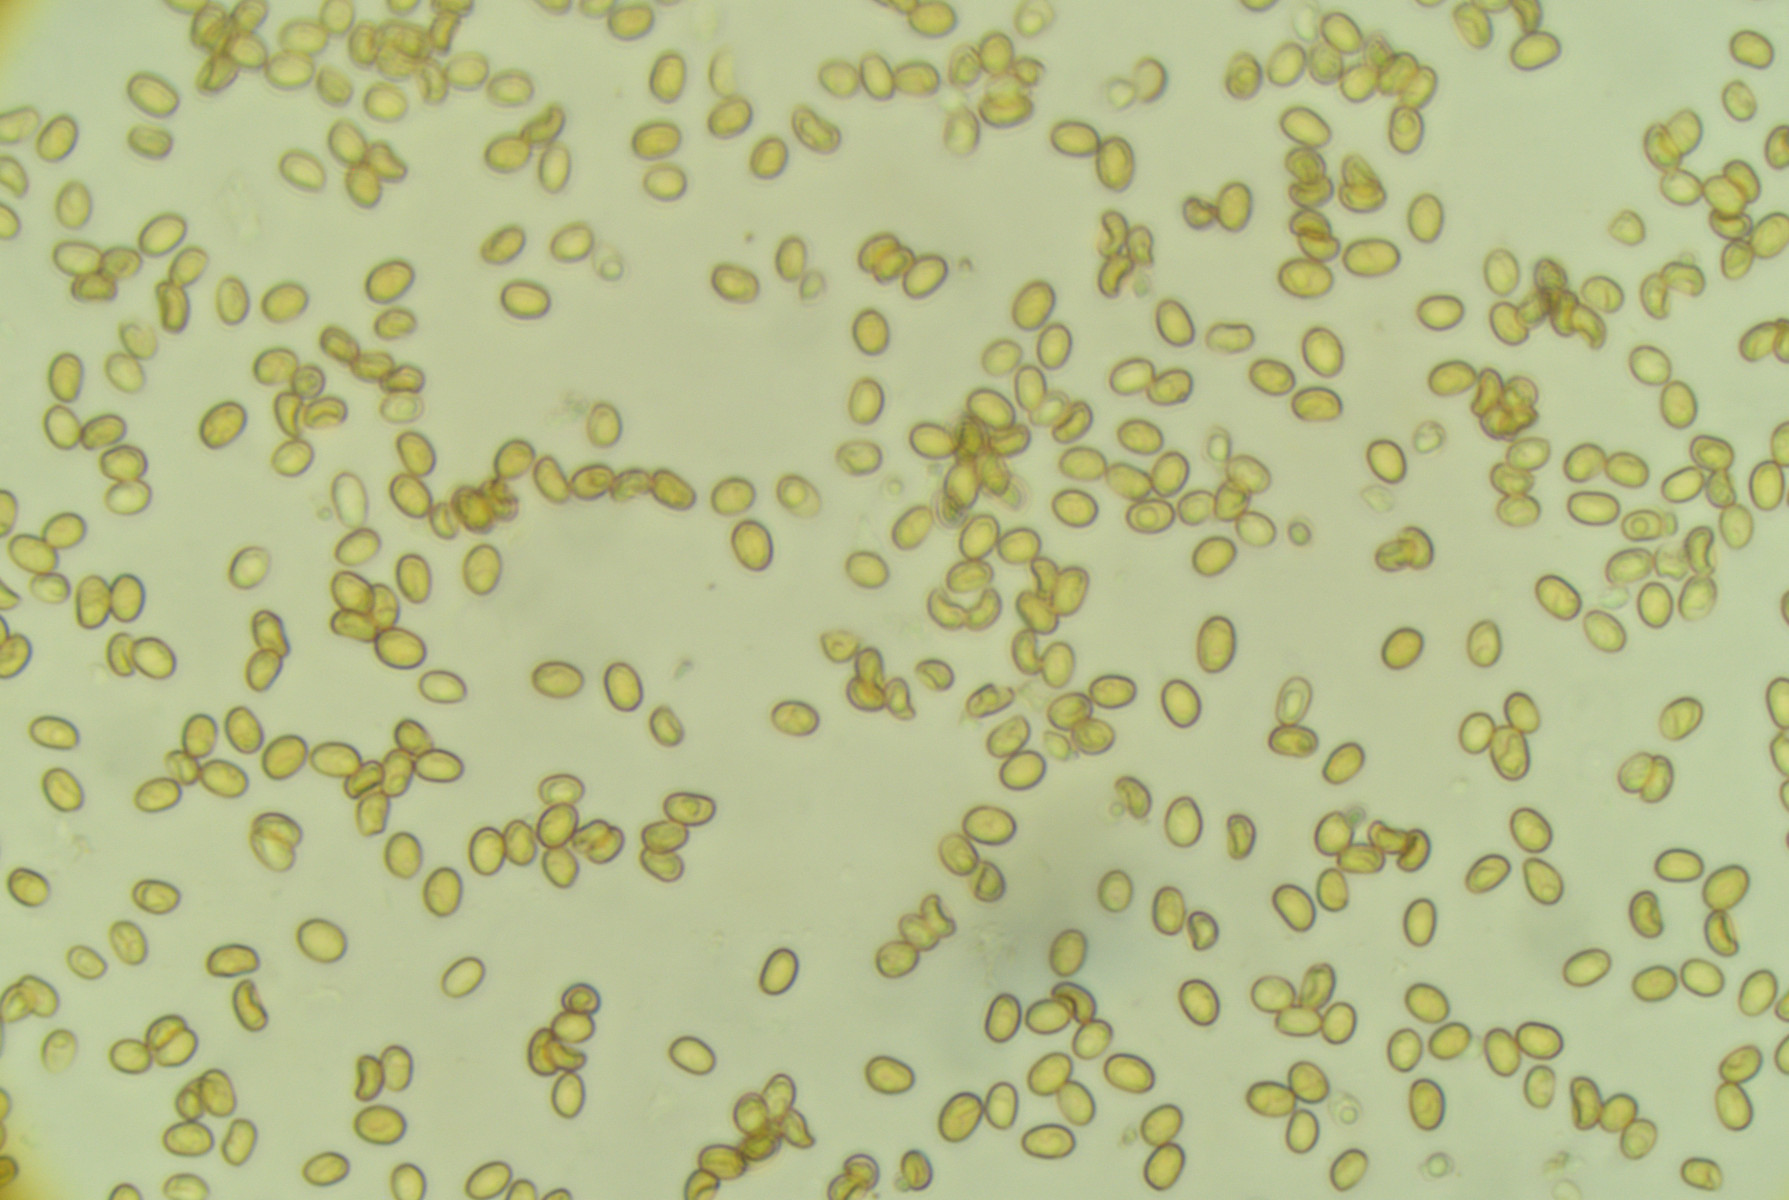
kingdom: Fungi
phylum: Basidiomycota
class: Agaricomycetes
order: Agaricales
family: Tubariaceae
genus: Tubaria
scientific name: Tubaria confragosa
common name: ring-fnughat
